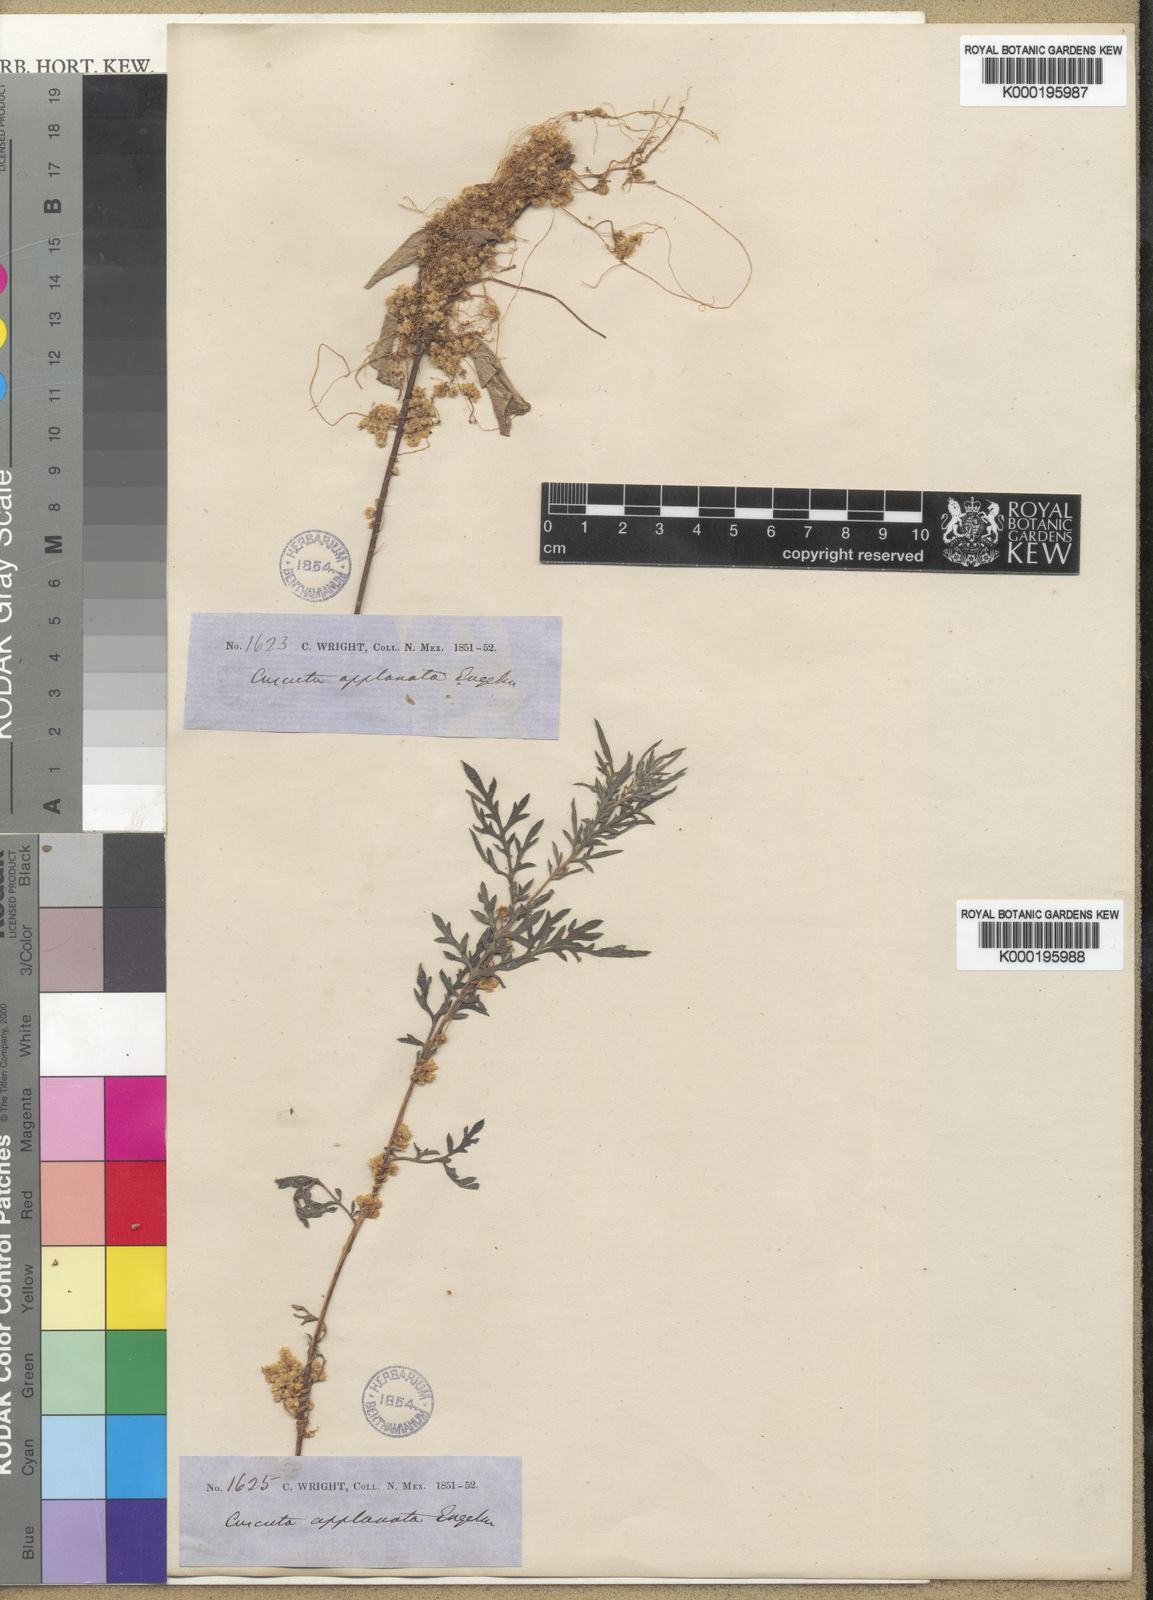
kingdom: Plantae
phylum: Tracheophyta
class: Magnoliopsida
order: Solanales
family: Convolvulaceae
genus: Cuscuta
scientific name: Cuscuta applanata
